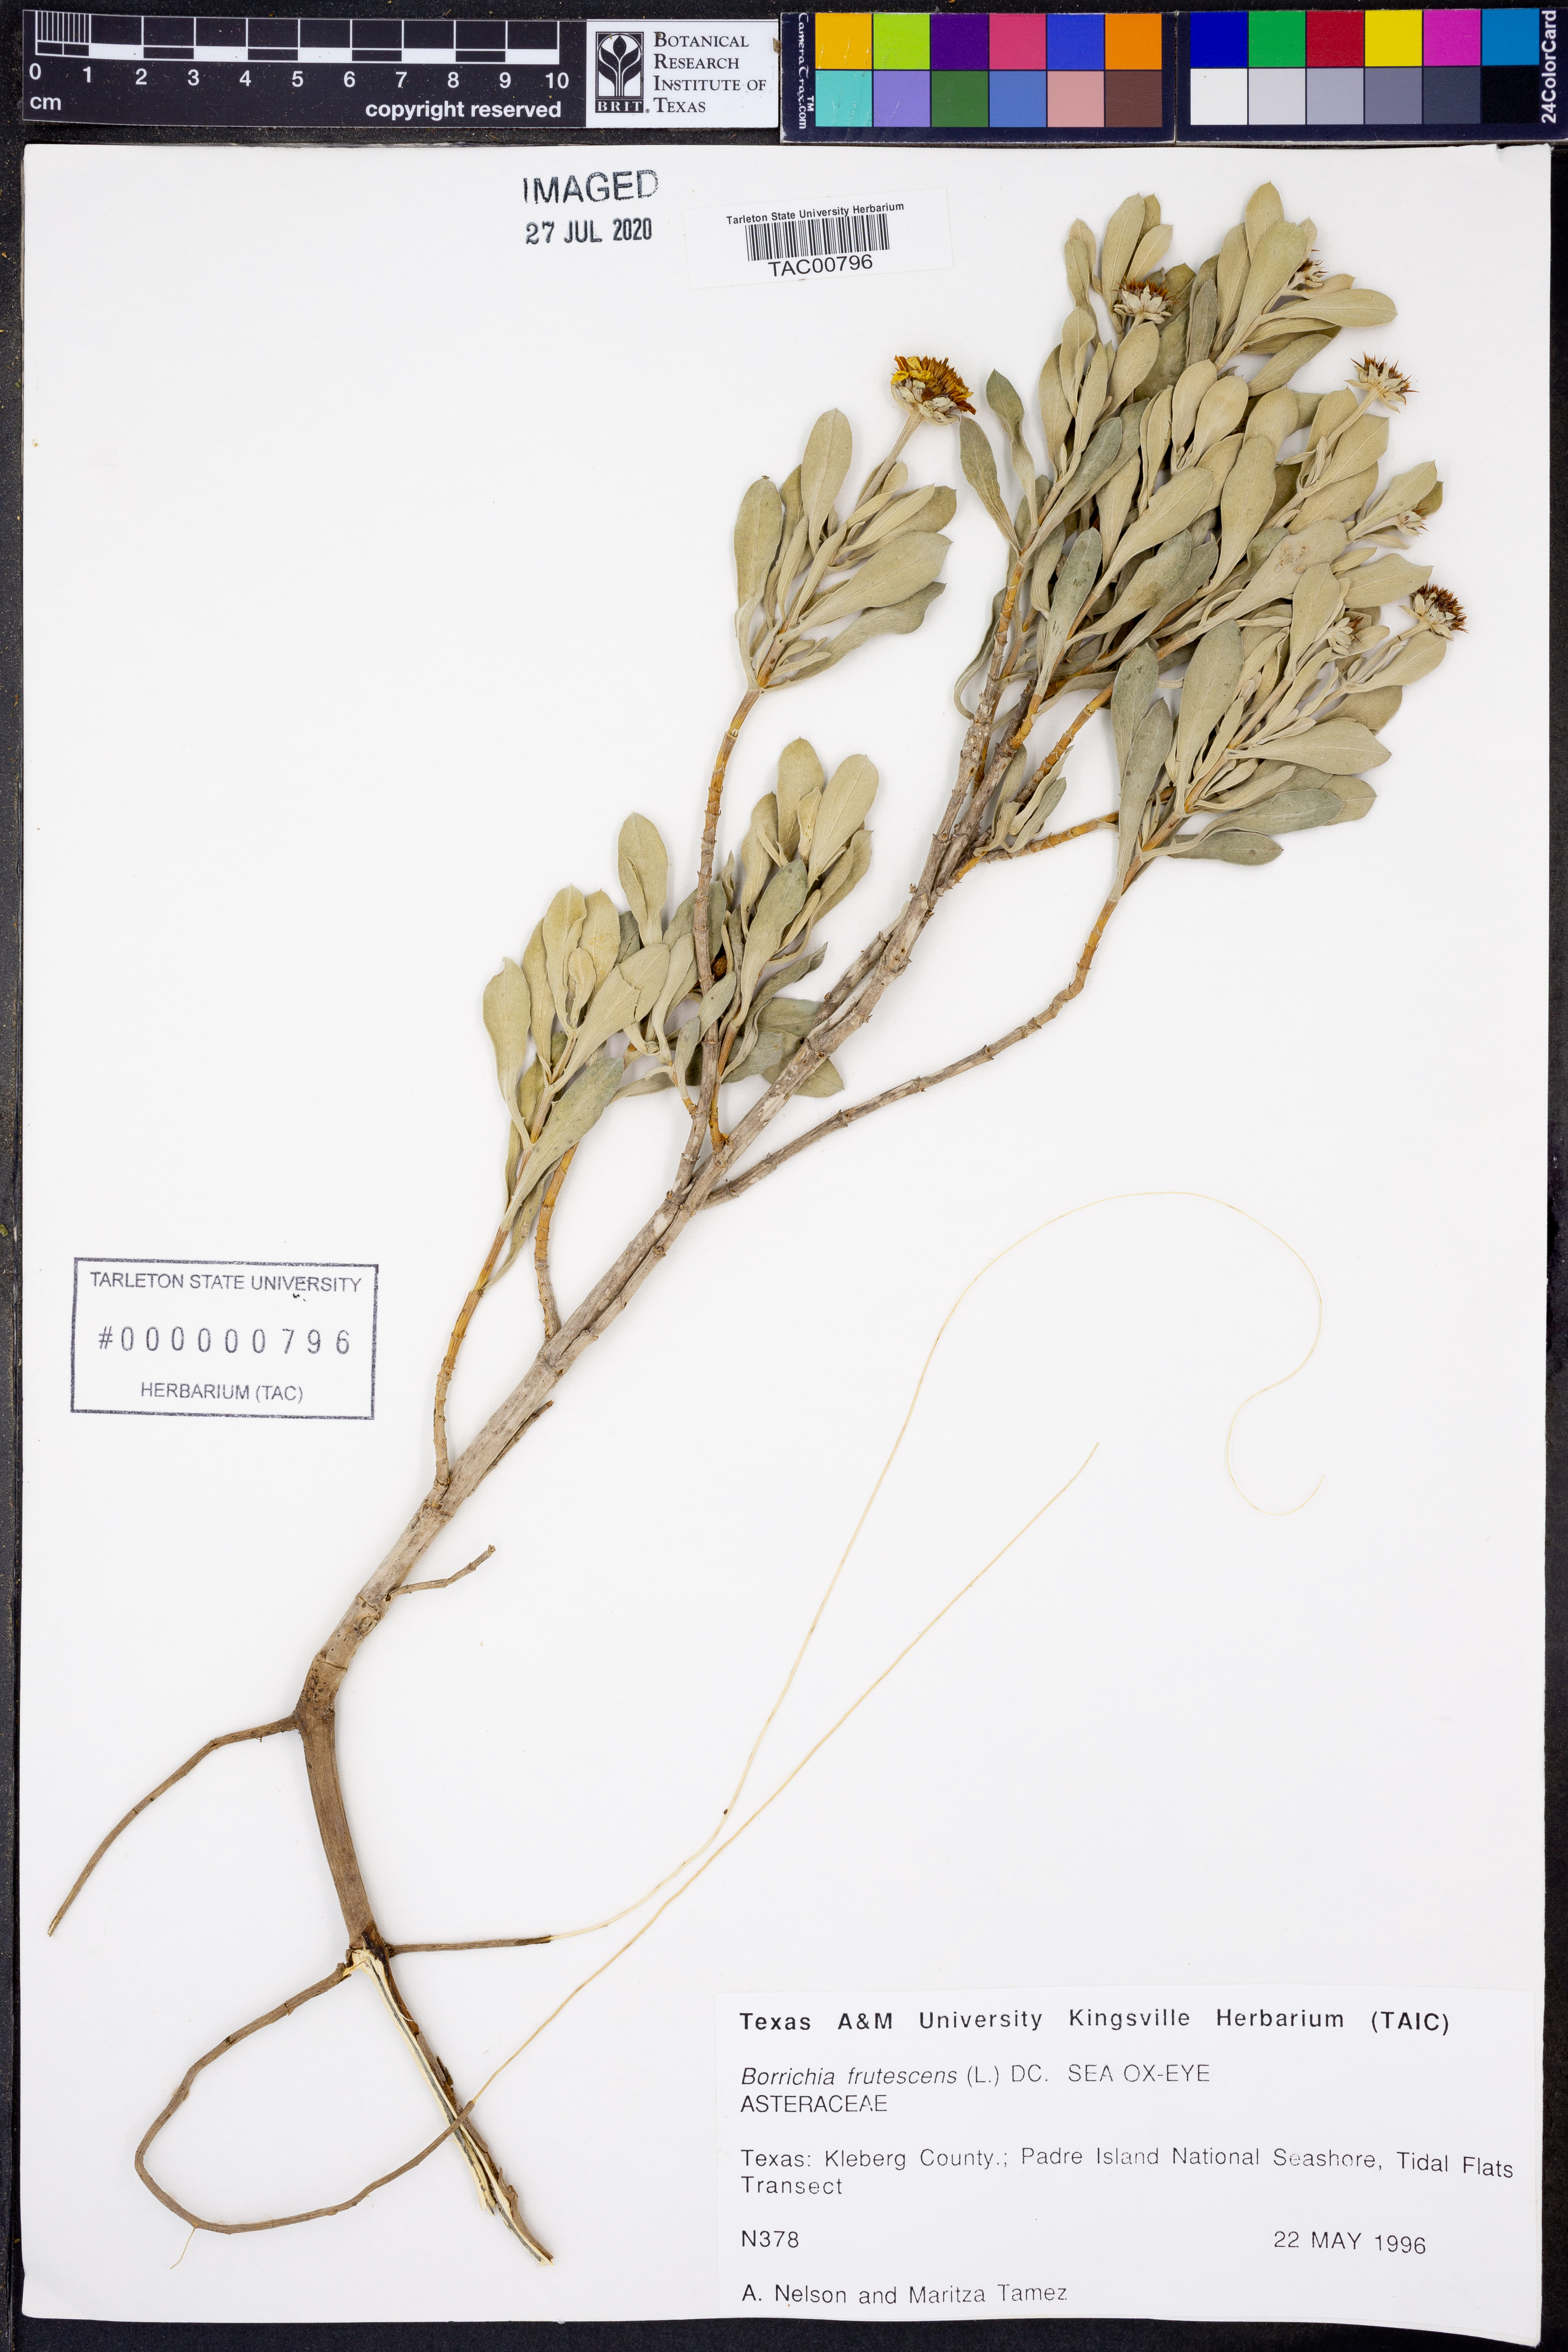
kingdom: Plantae
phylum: Tracheophyta
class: Magnoliopsida
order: Asterales
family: Asteraceae
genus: Borrichia
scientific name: Borrichia frutescens
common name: Sea oxeye
